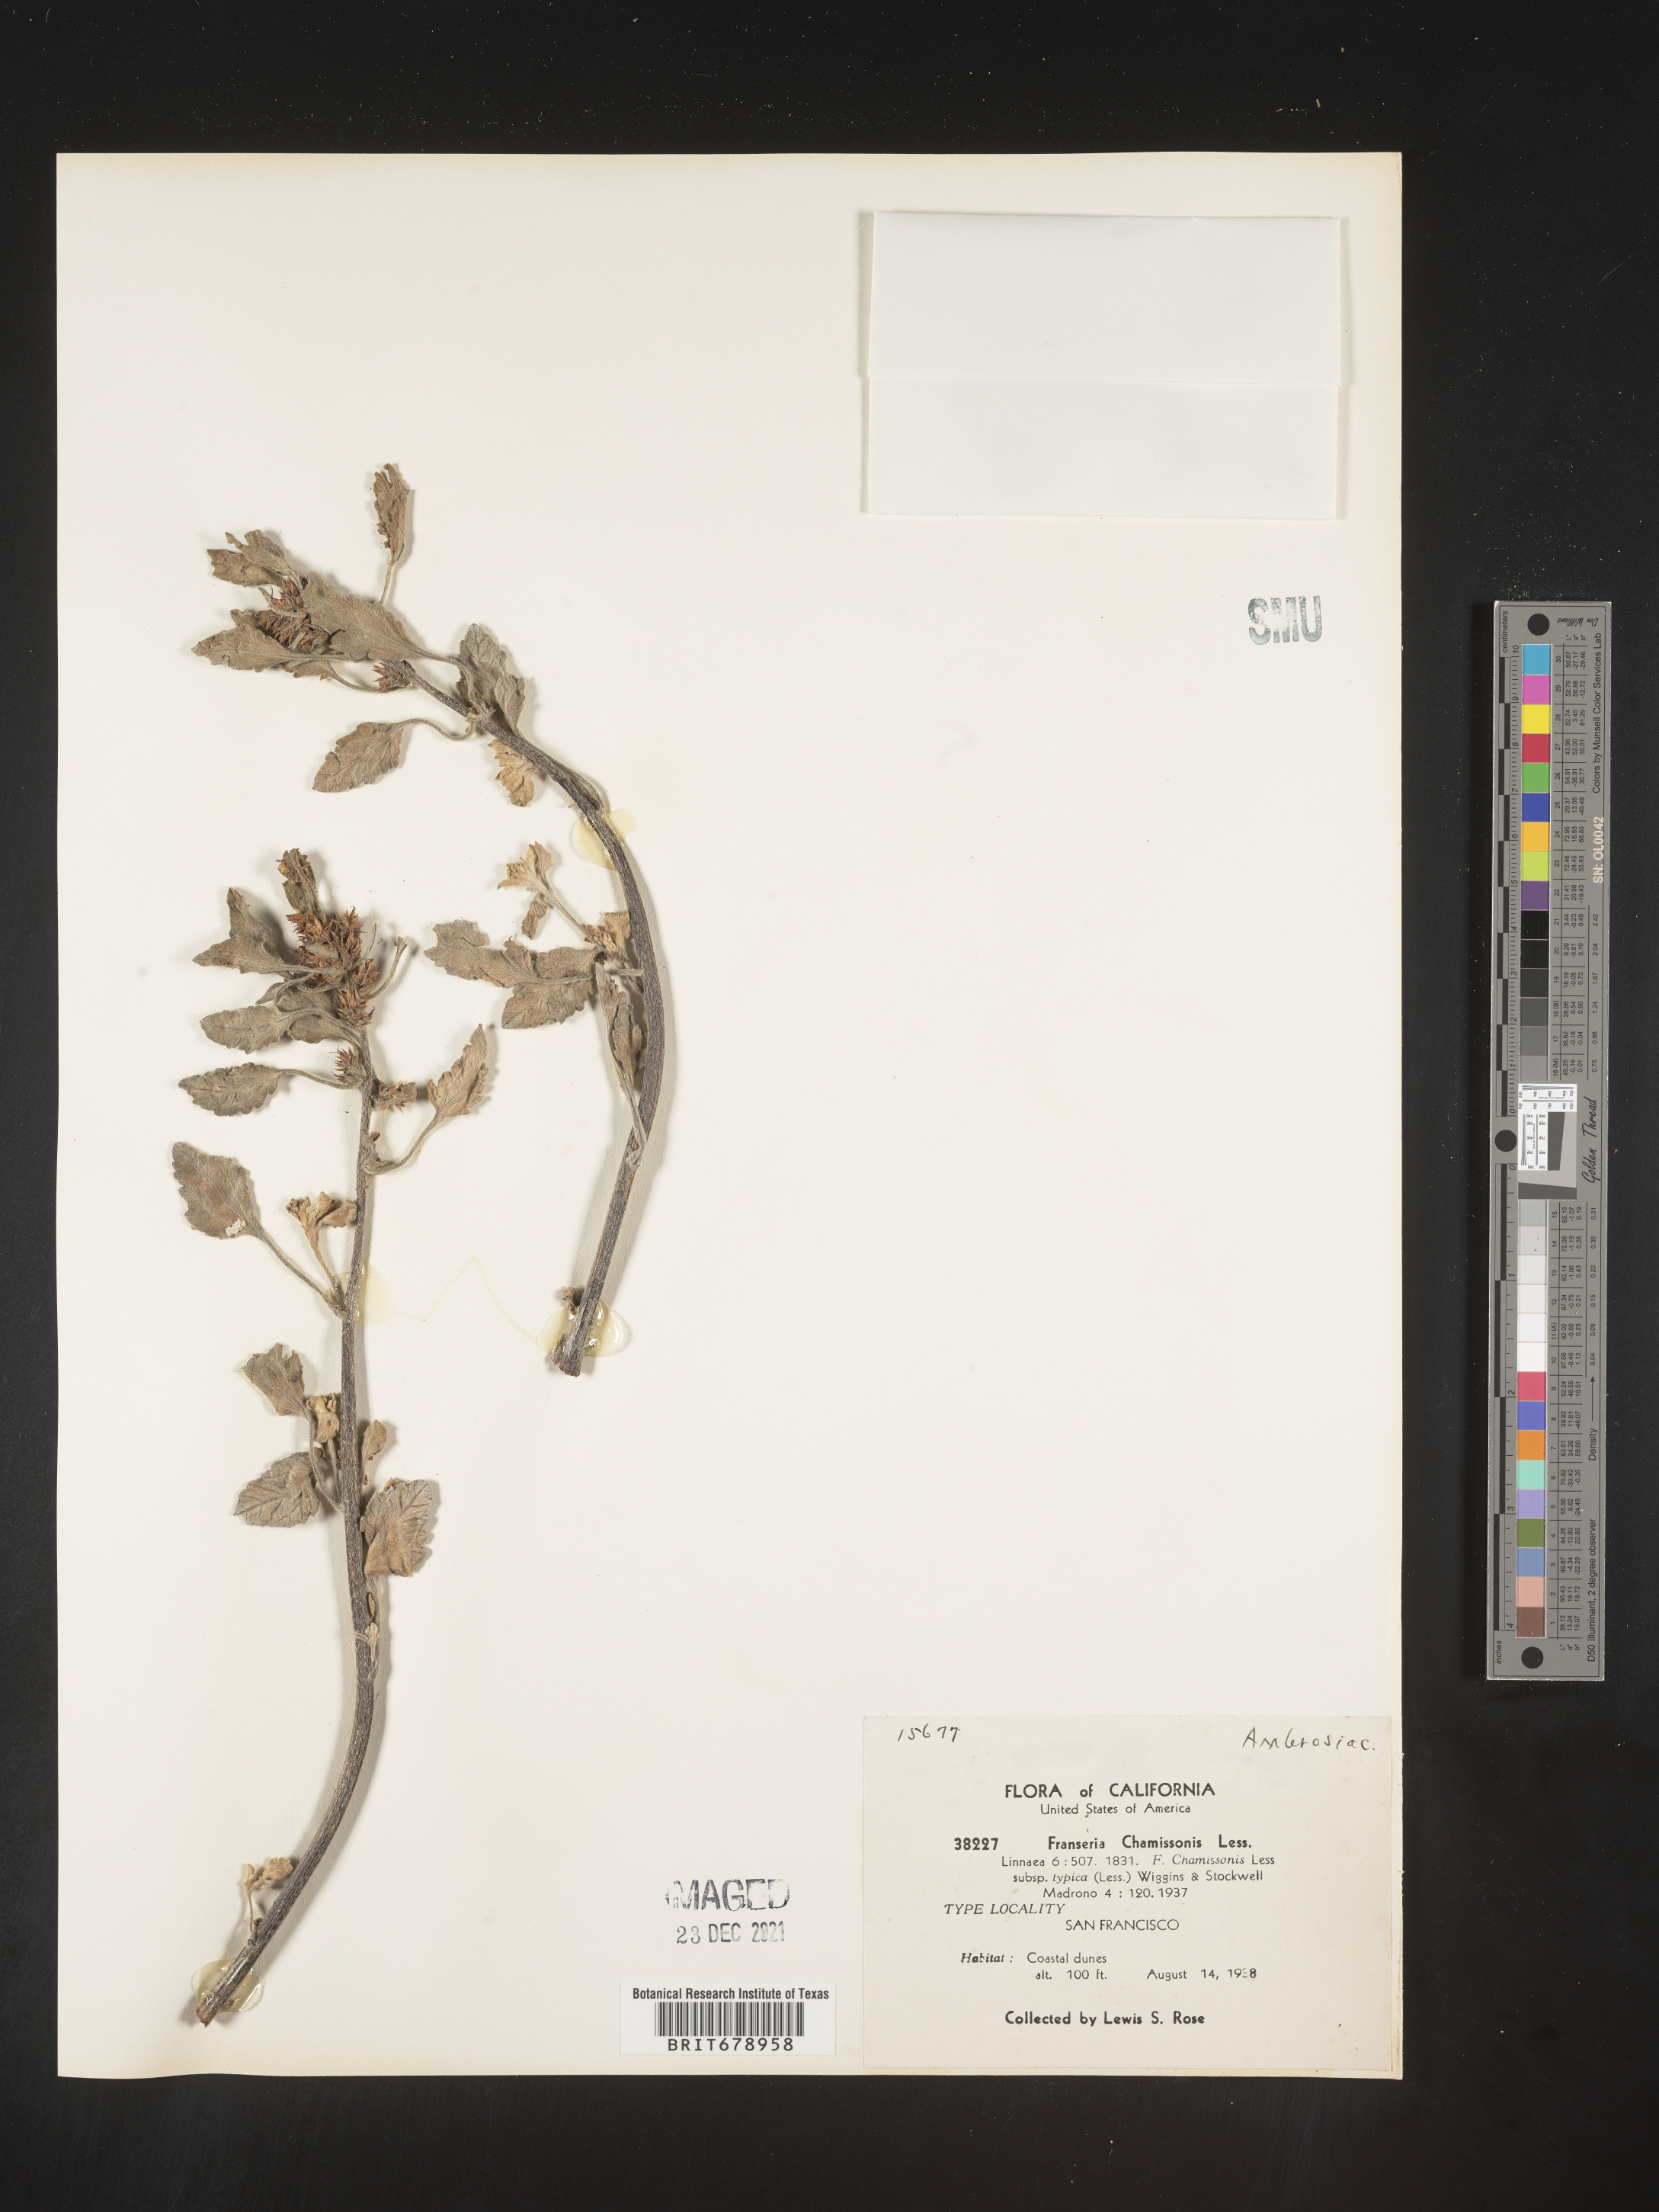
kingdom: Plantae
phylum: Tracheophyta
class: Magnoliopsida
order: Asterales
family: Asteraceae
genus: Ambrosia
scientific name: Ambrosia chamissonis
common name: Beachbur
